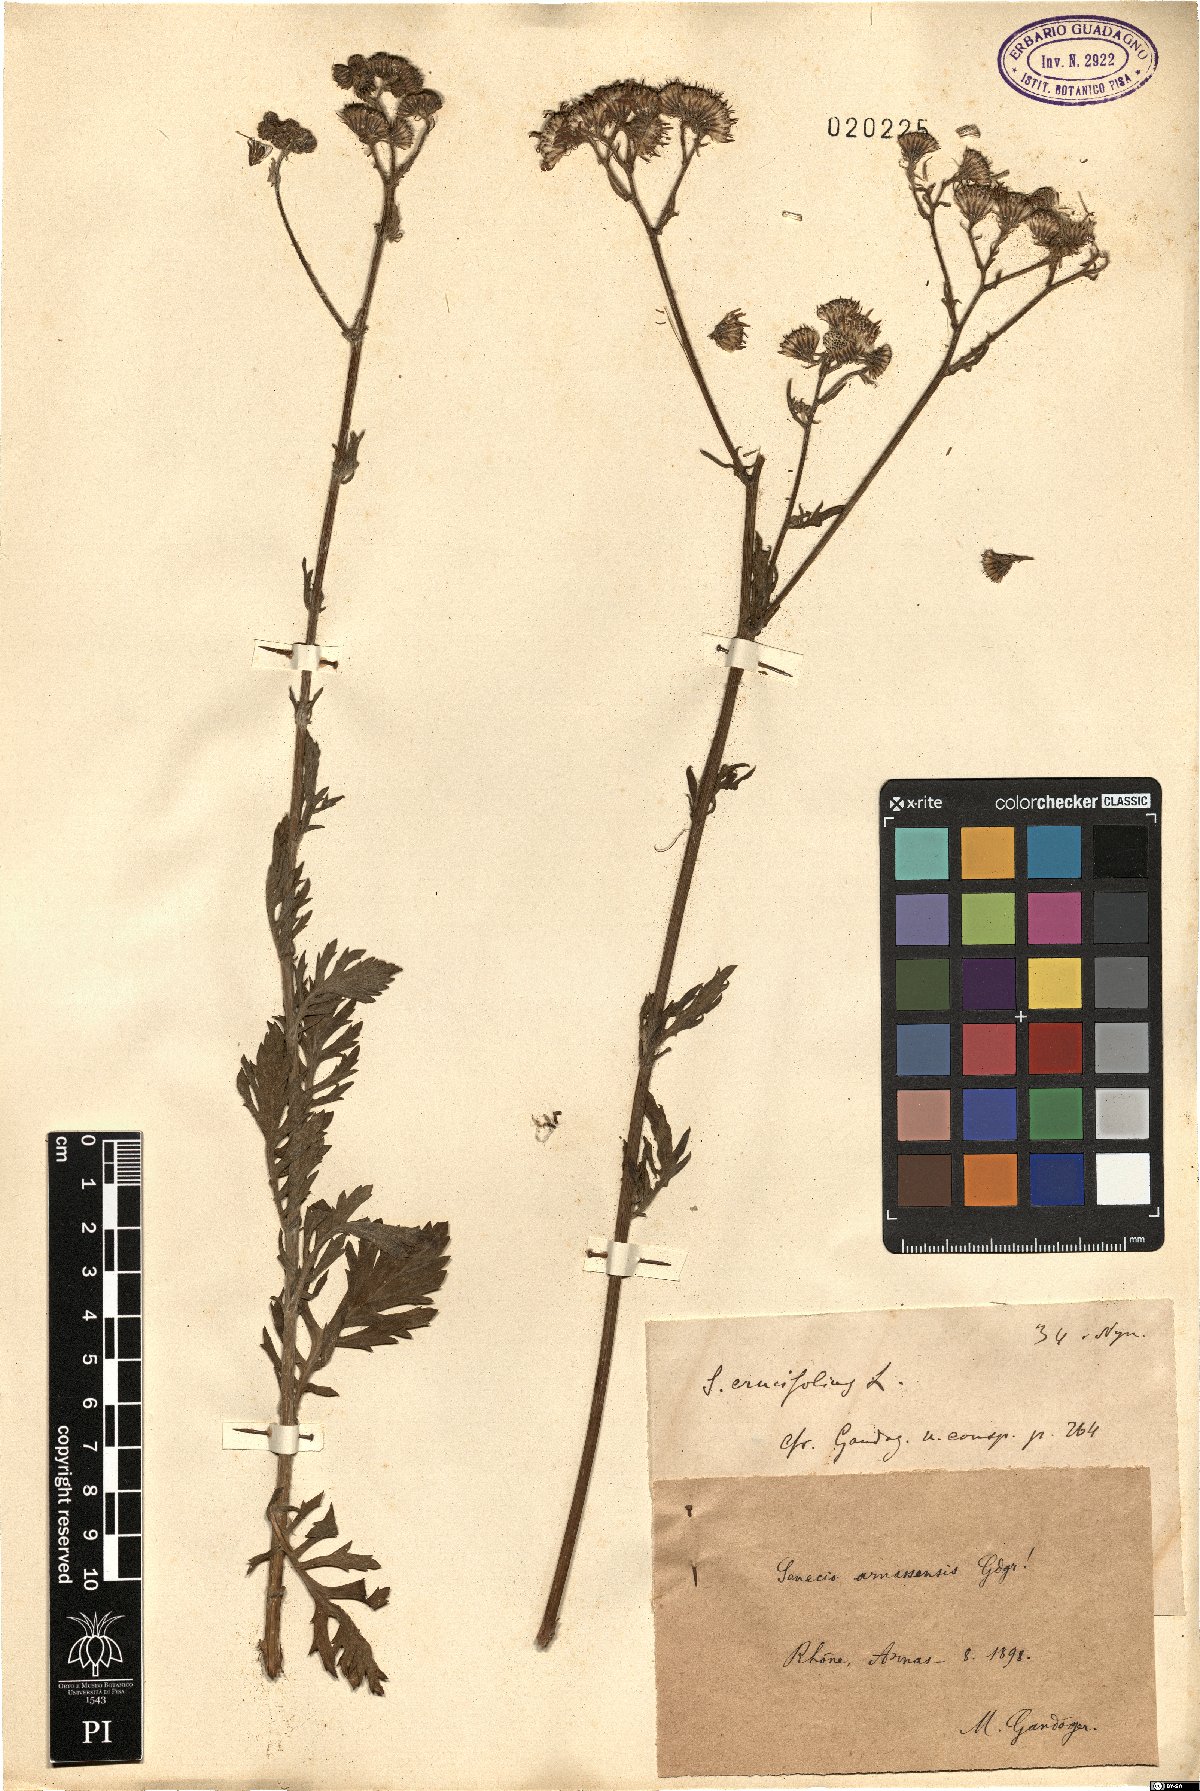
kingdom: Plantae
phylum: Tracheophyta
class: Magnoliopsida
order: Asterales
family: Asteraceae
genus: Jacobaea
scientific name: Jacobaea erucifolia
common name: Hoary ragwort
